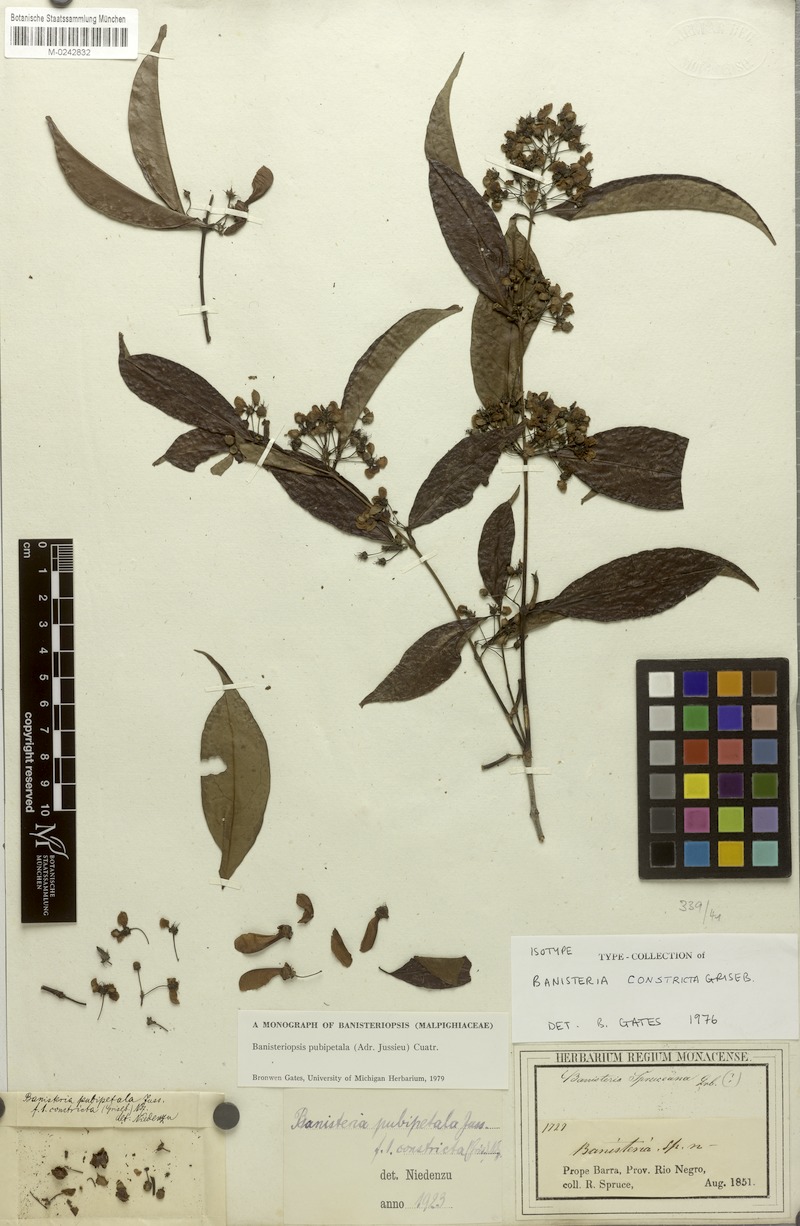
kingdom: Plantae
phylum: Tracheophyta
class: Magnoliopsida
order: Malpighiales
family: Malpighiaceae
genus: Diplopterys
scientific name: Diplopterys pubipetala
